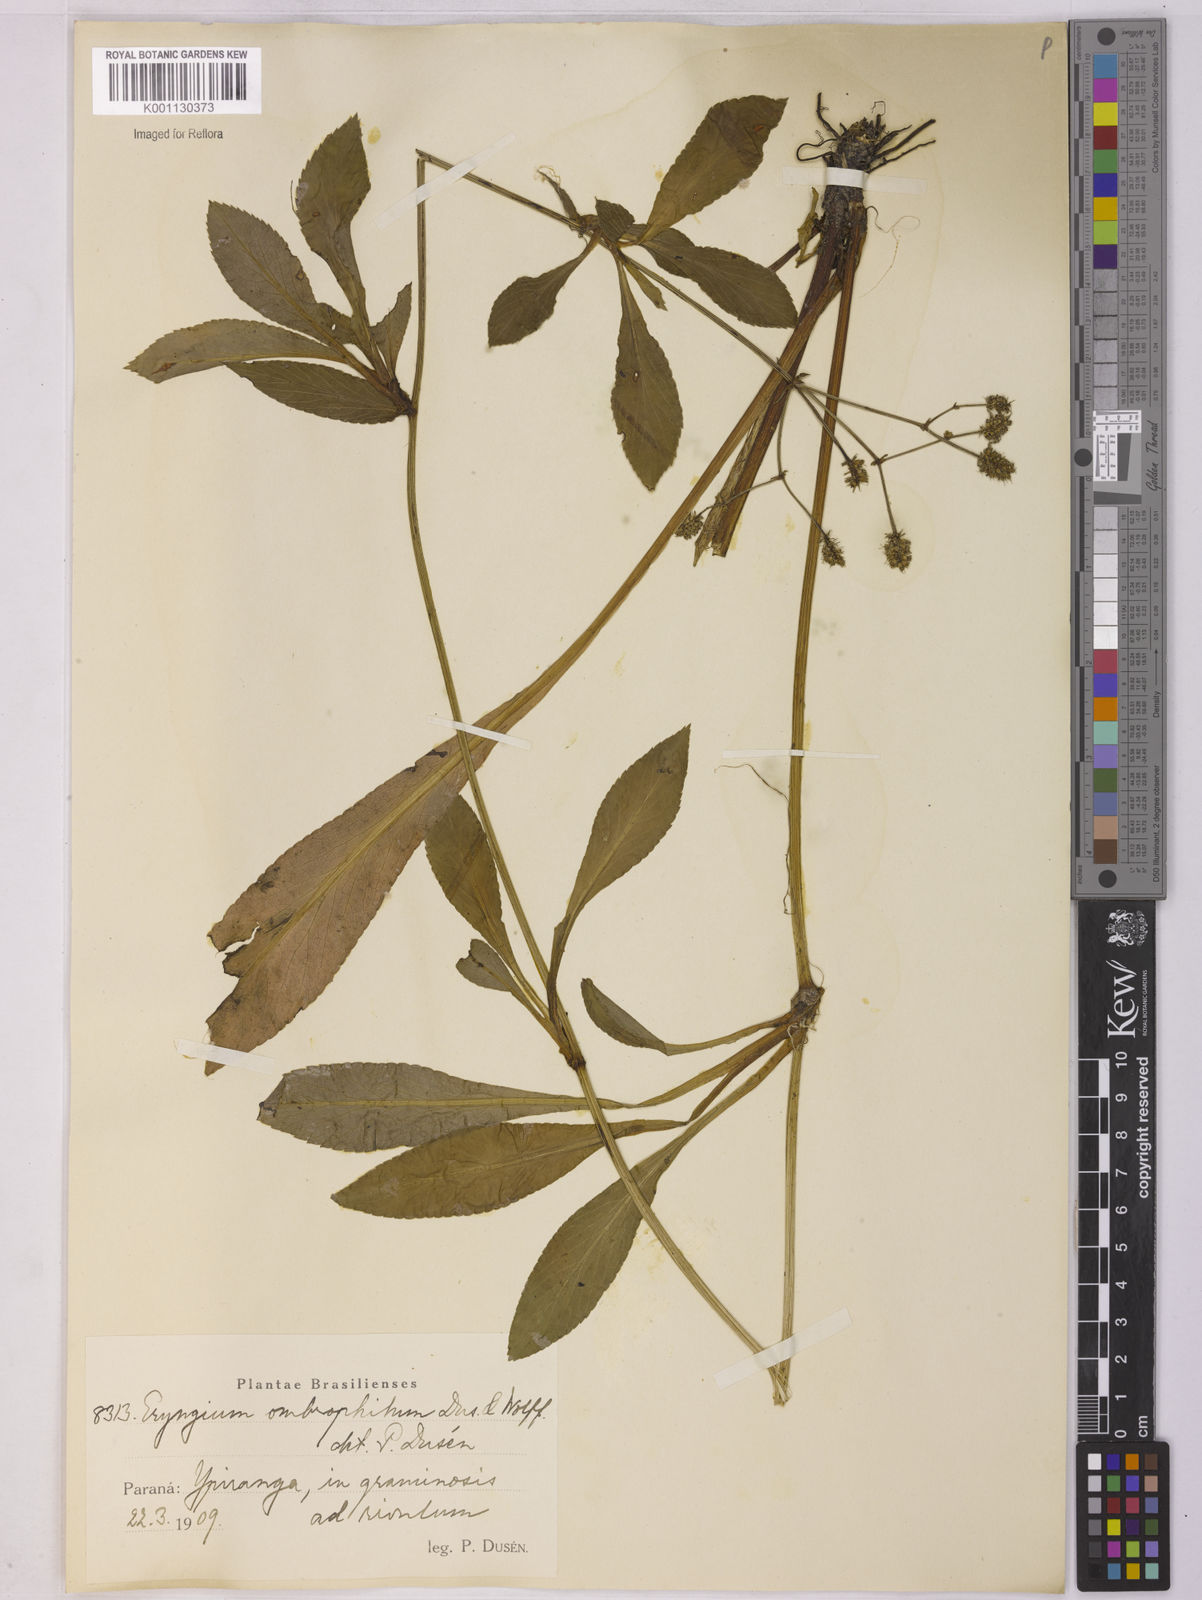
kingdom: Plantae
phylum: Tracheophyta
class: Magnoliopsida
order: Apiales
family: Apiaceae
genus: Eryngium
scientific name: Eryngium
